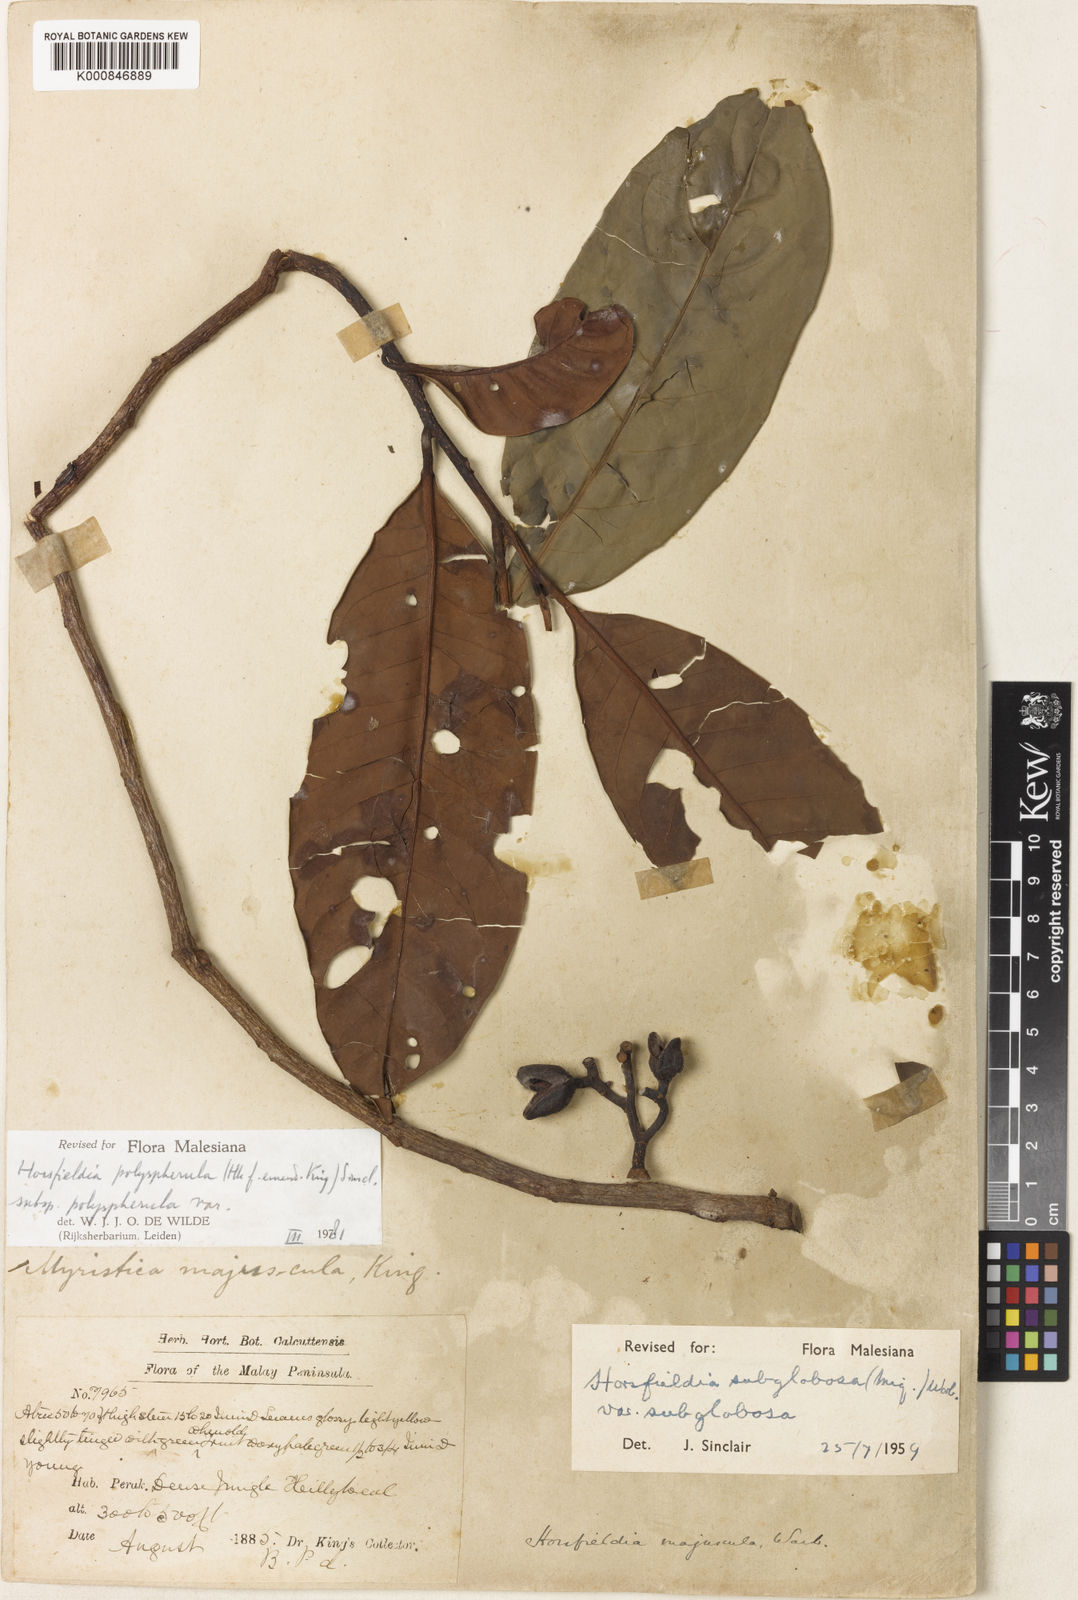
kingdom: Plantae
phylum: Tracheophyta
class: Magnoliopsida
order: Magnoliales
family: Myristicaceae
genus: Horsfieldia
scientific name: Horsfieldia polyspherula
